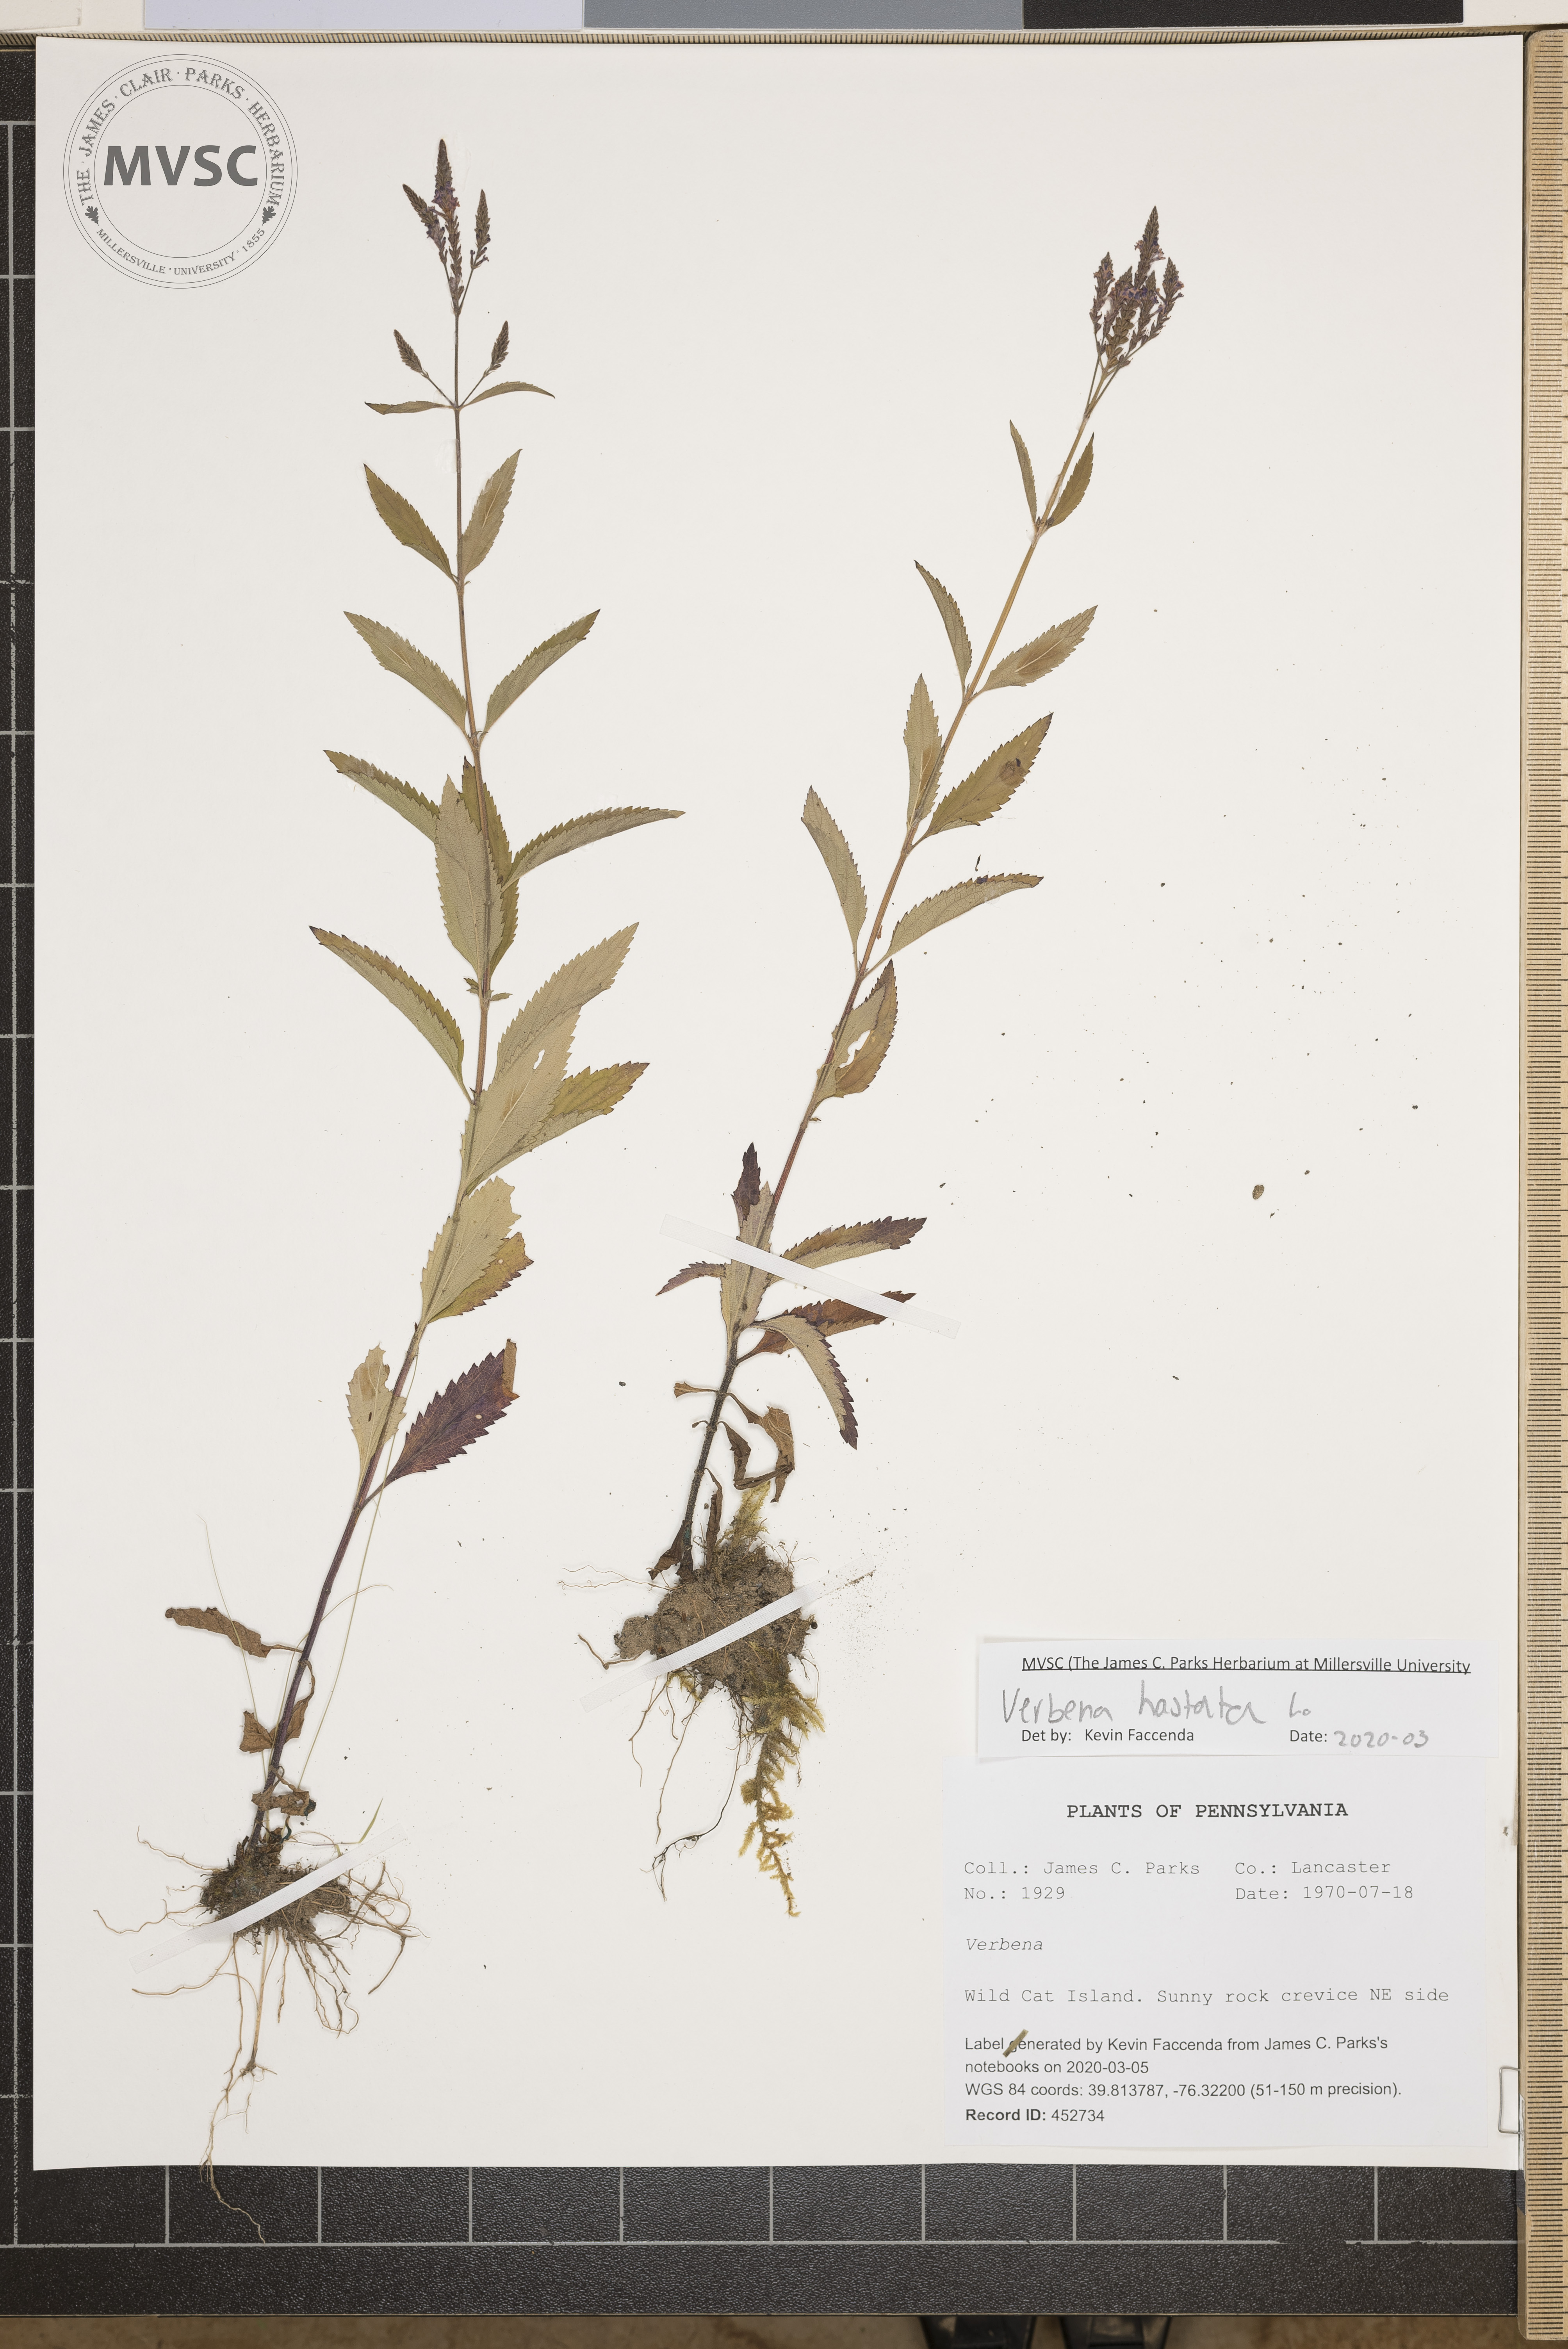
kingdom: Plantae
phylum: Tracheophyta
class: Magnoliopsida
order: Lamiales
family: Verbenaceae
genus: Verbena
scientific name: Verbena hastata
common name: American blue vervain
